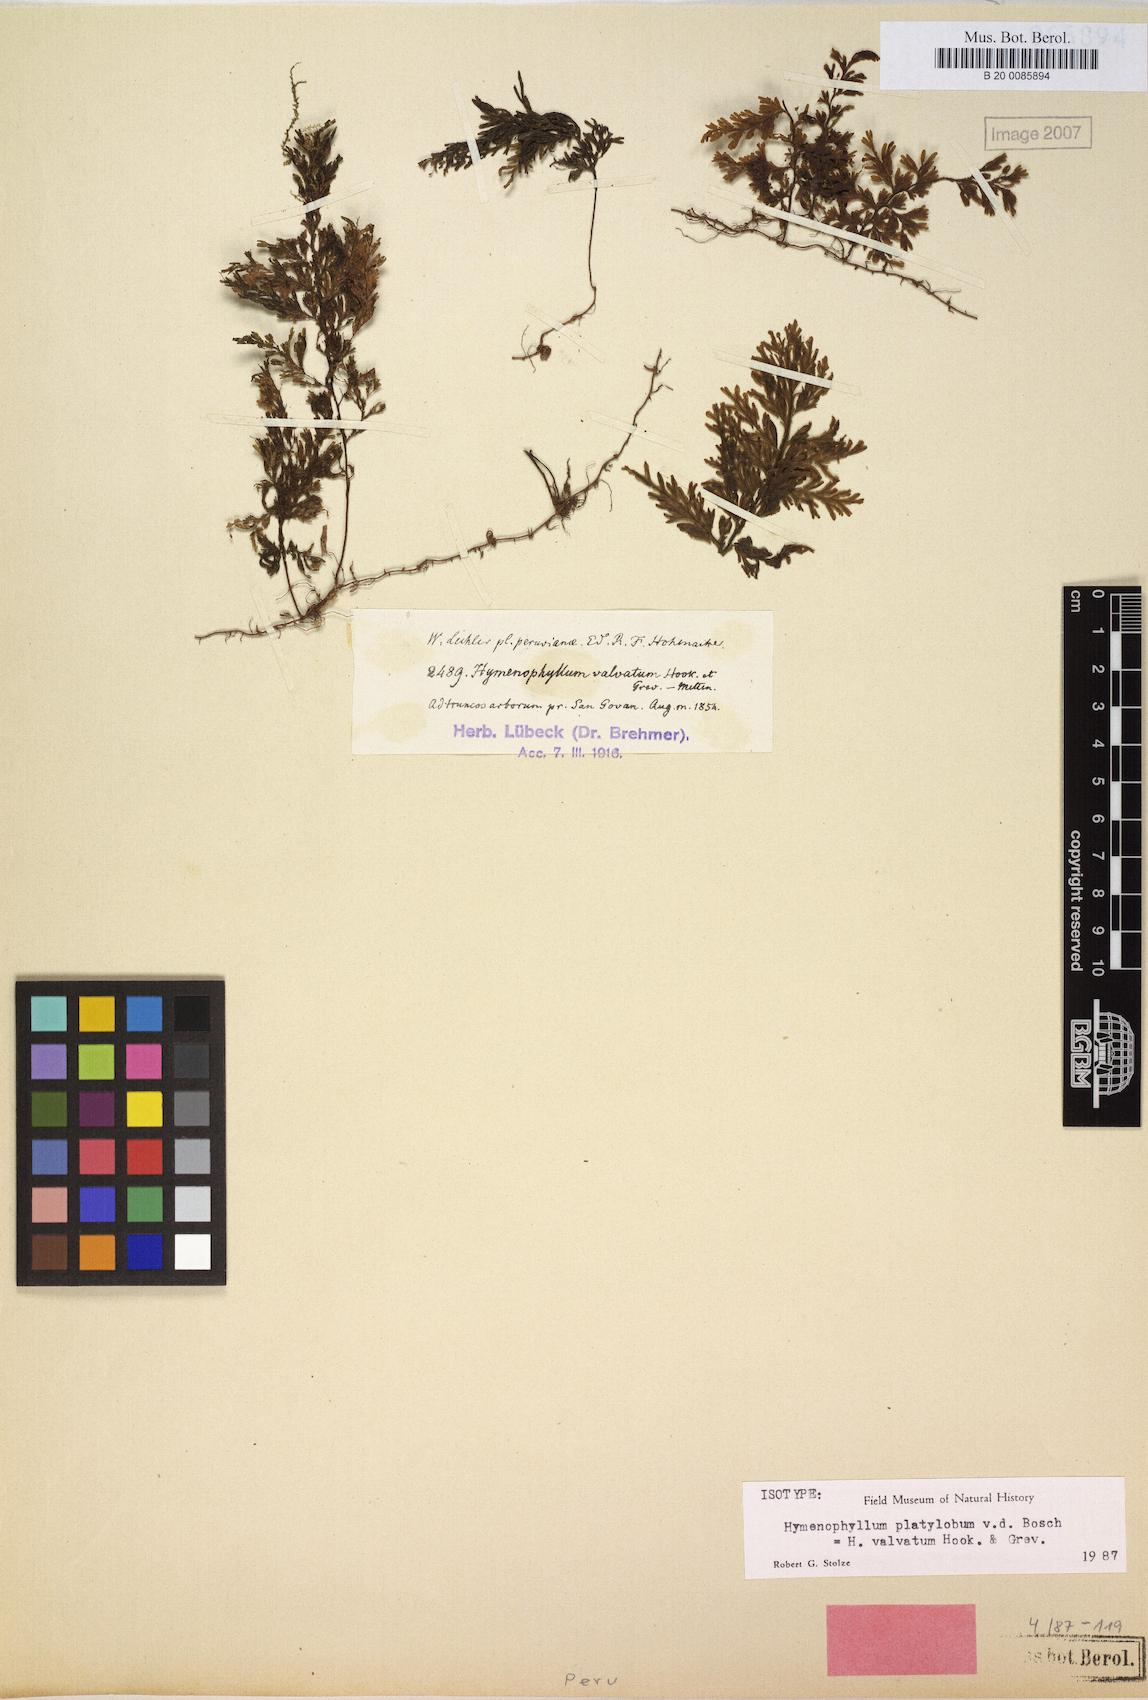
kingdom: Plantae
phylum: Tracheophyta
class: Polypodiopsida
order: Hymenophyllales
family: Hymenophyllaceae
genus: Hymenophyllum
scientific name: Hymenophyllum valvatum
